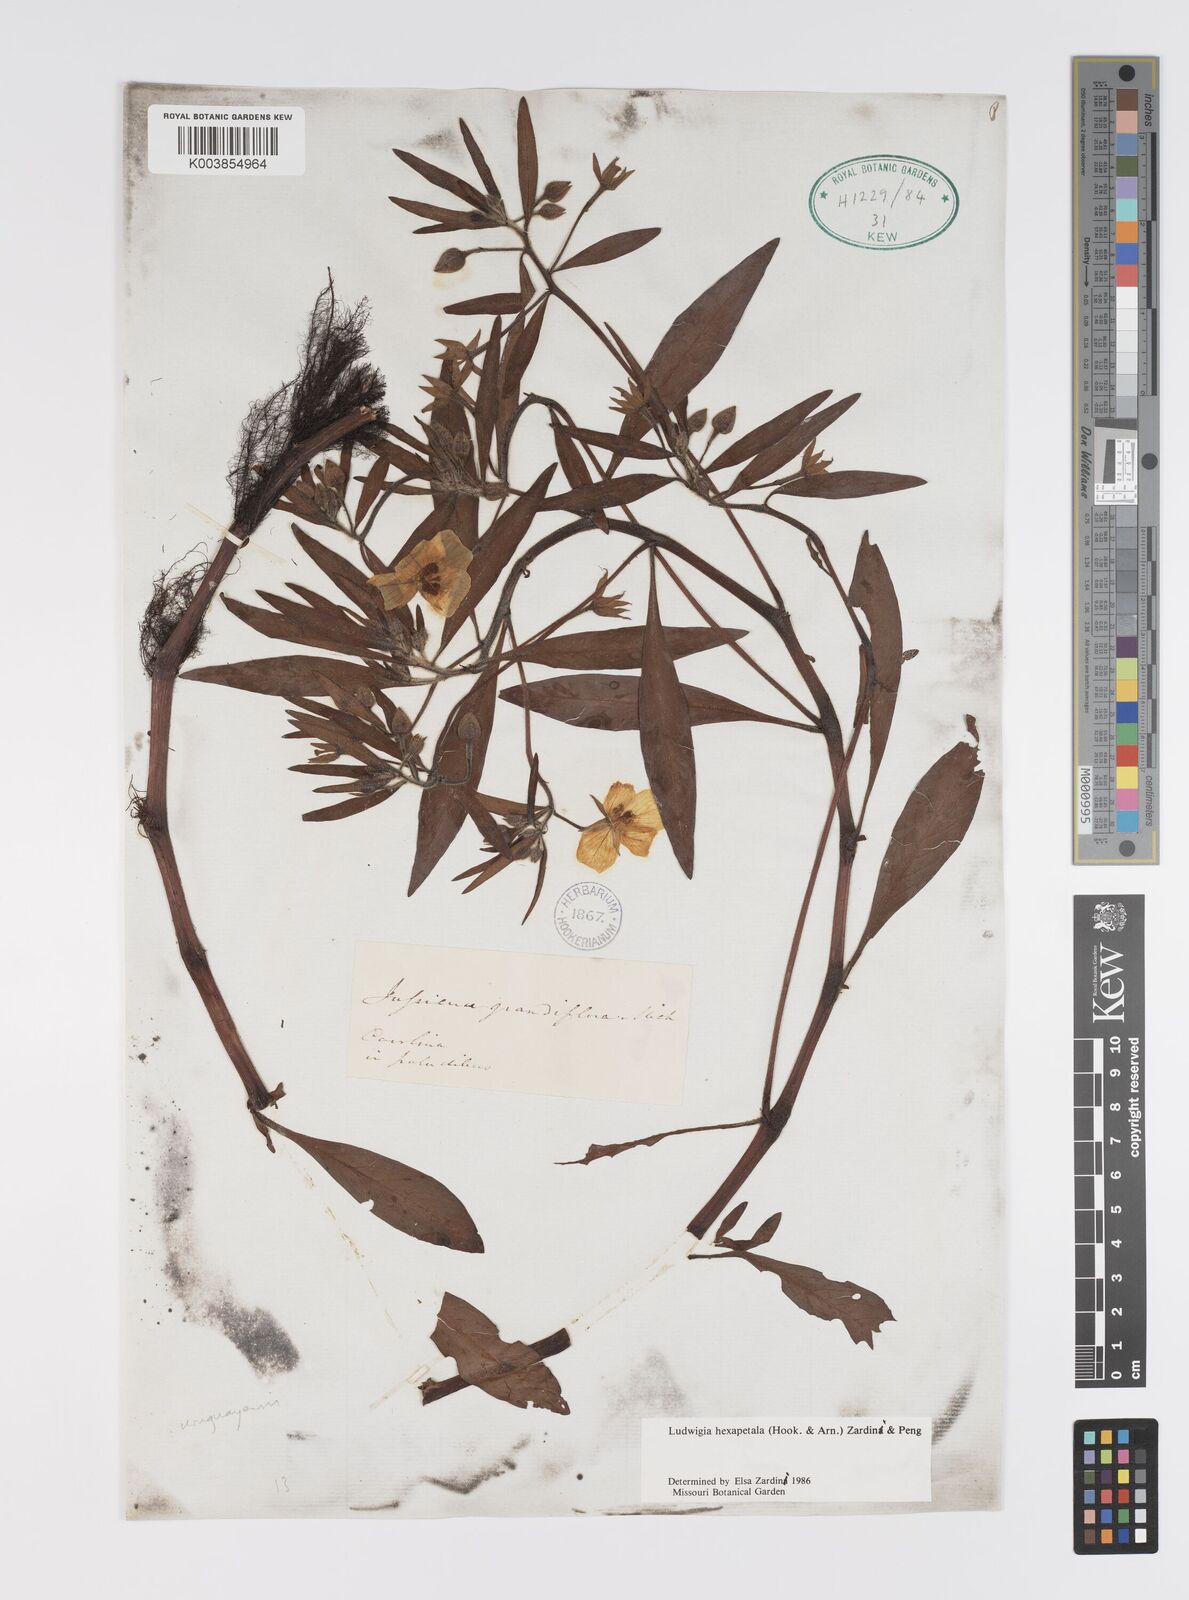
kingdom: Plantae
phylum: Tracheophyta
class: Magnoliopsida
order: Myrtales
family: Onagraceae
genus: Ludwigia
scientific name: Ludwigia hexapetala
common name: Water-primrose
